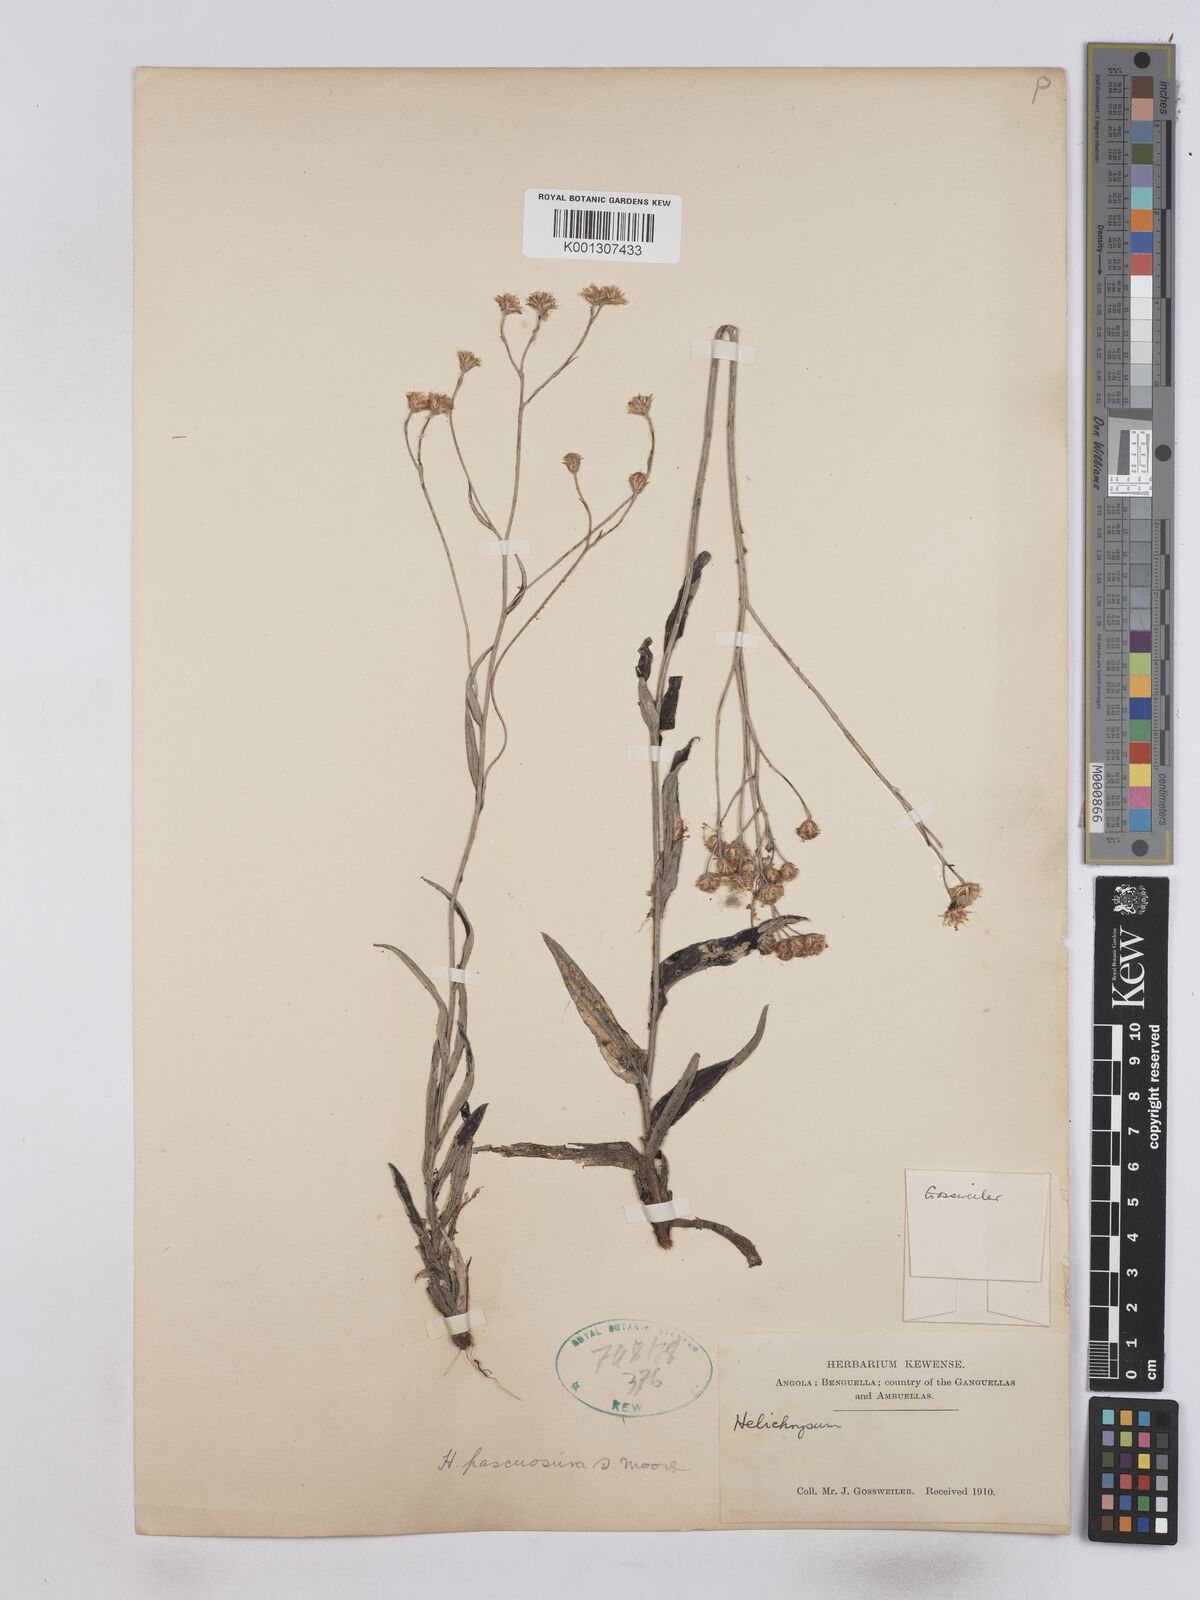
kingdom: Plantae
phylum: Tracheophyta
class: Magnoliopsida
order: Asterales
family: Asteraceae
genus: Helichrysum
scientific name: Helichrysum pascuosum
